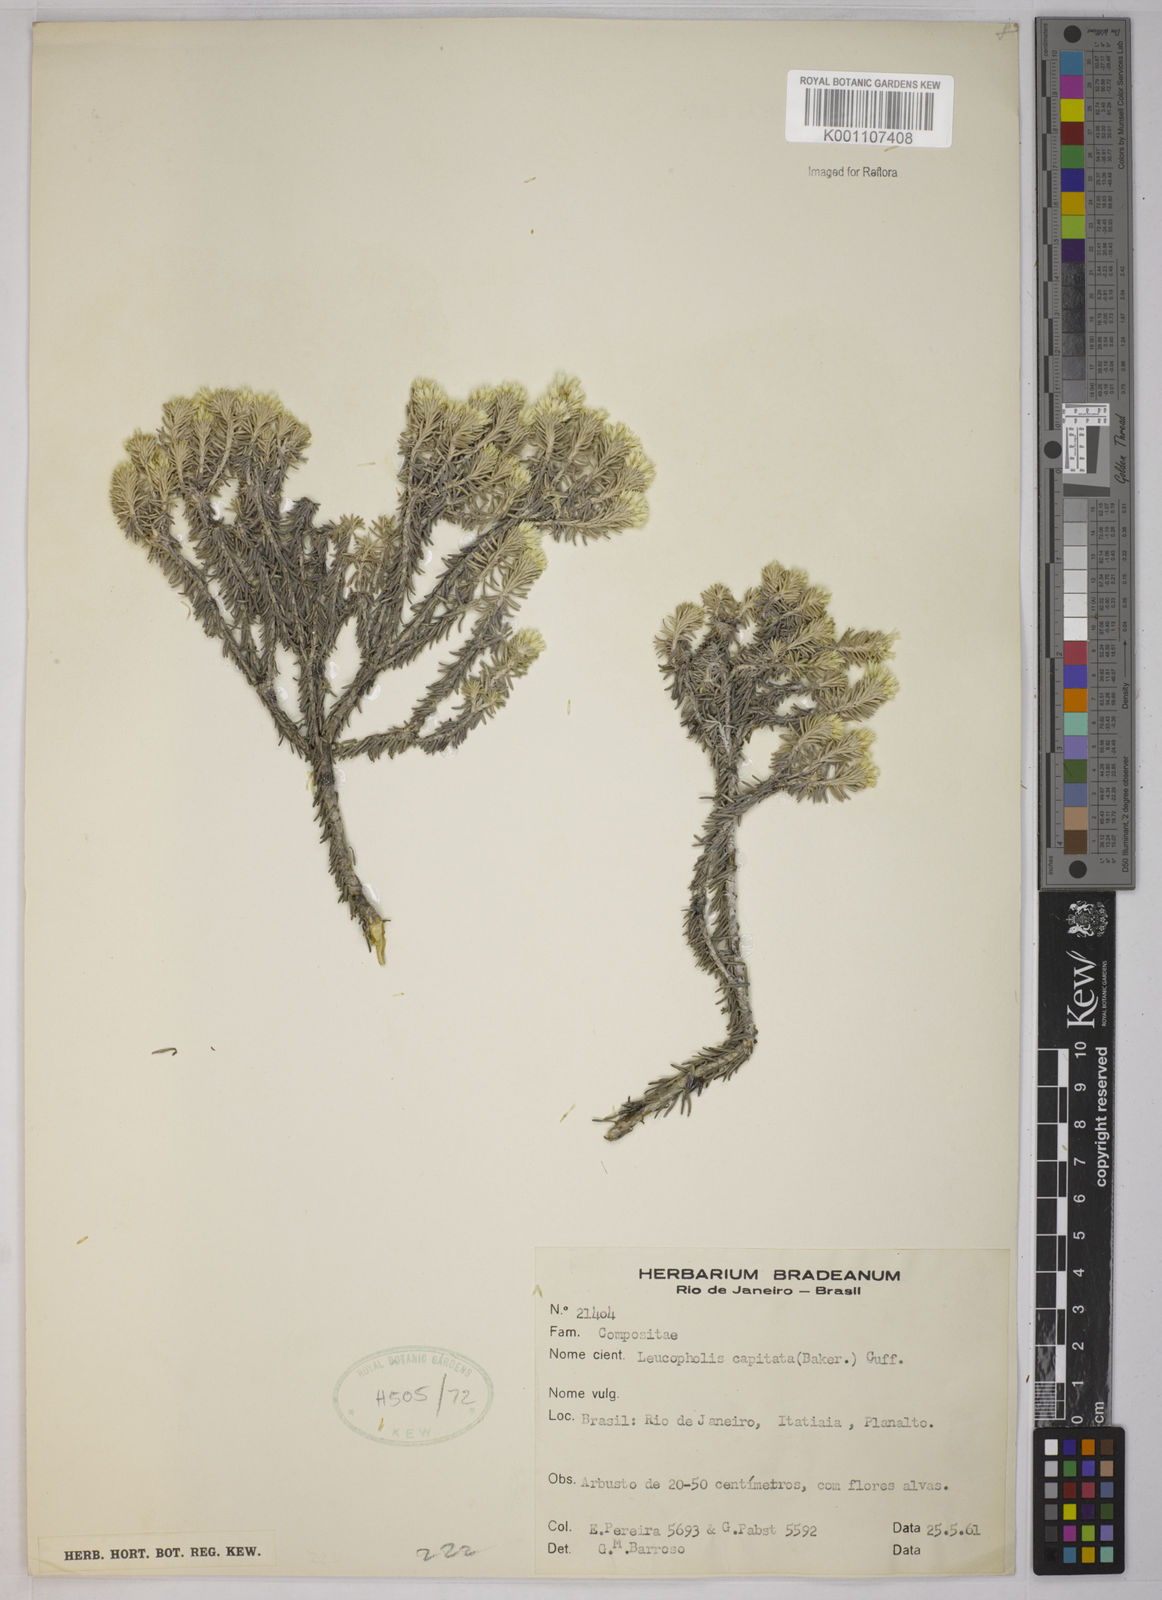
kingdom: Plantae
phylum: Tracheophyta
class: Magnoliopsida
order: Asterales
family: Asteraceae
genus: Chionolaena
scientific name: Chionolaena capitata
